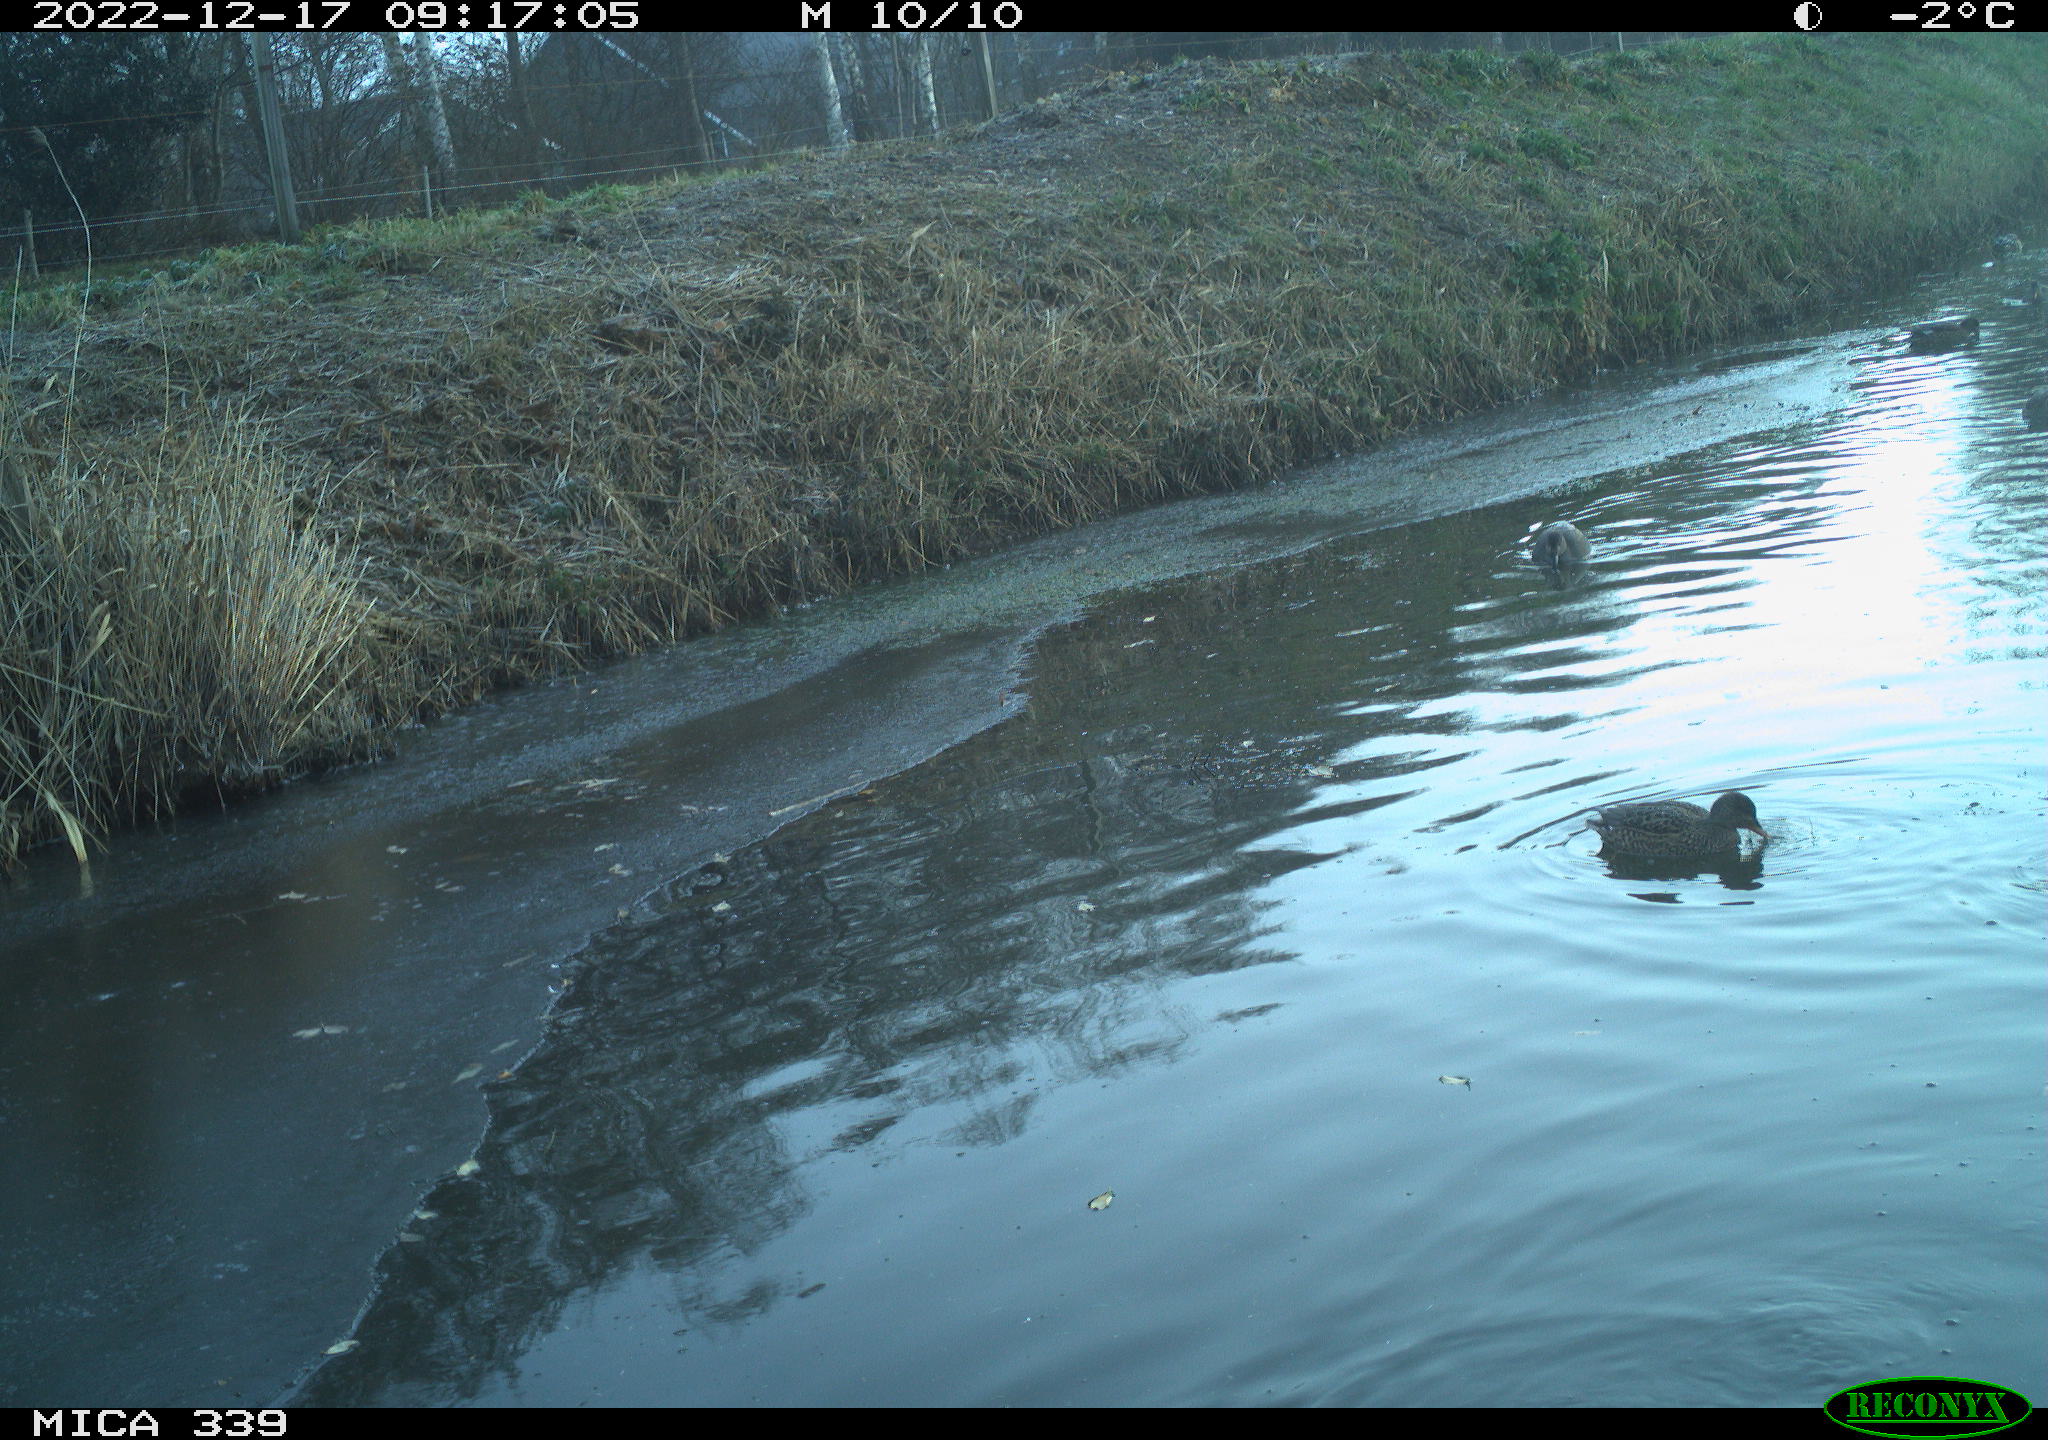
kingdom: Animalia
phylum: Chordata
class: Aves
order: Gruiformes
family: Rallidae
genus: Gallinula
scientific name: Gallinula chloropus
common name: Common moorhen
